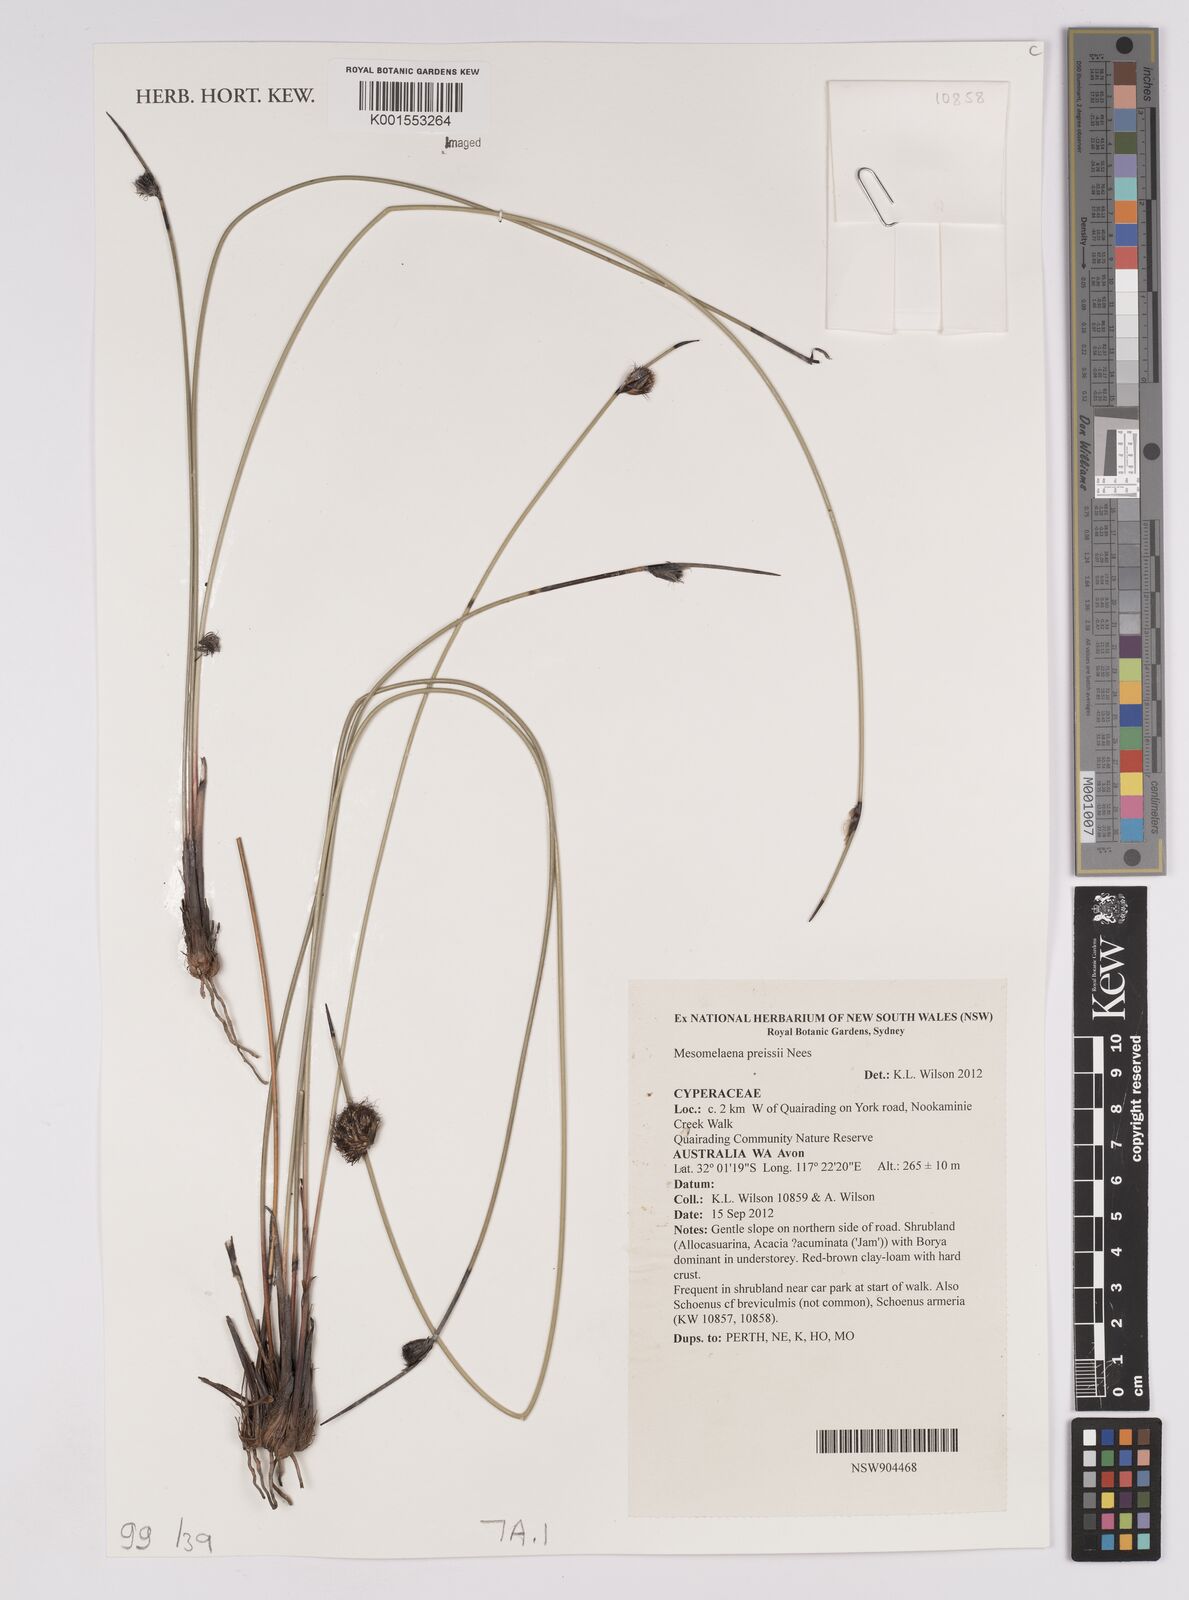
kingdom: Plantae
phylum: Tracheophyta
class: Liliopsida
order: Poales
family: Cyperaceae
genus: Mesomelaena
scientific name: Mesomelaena preissii
